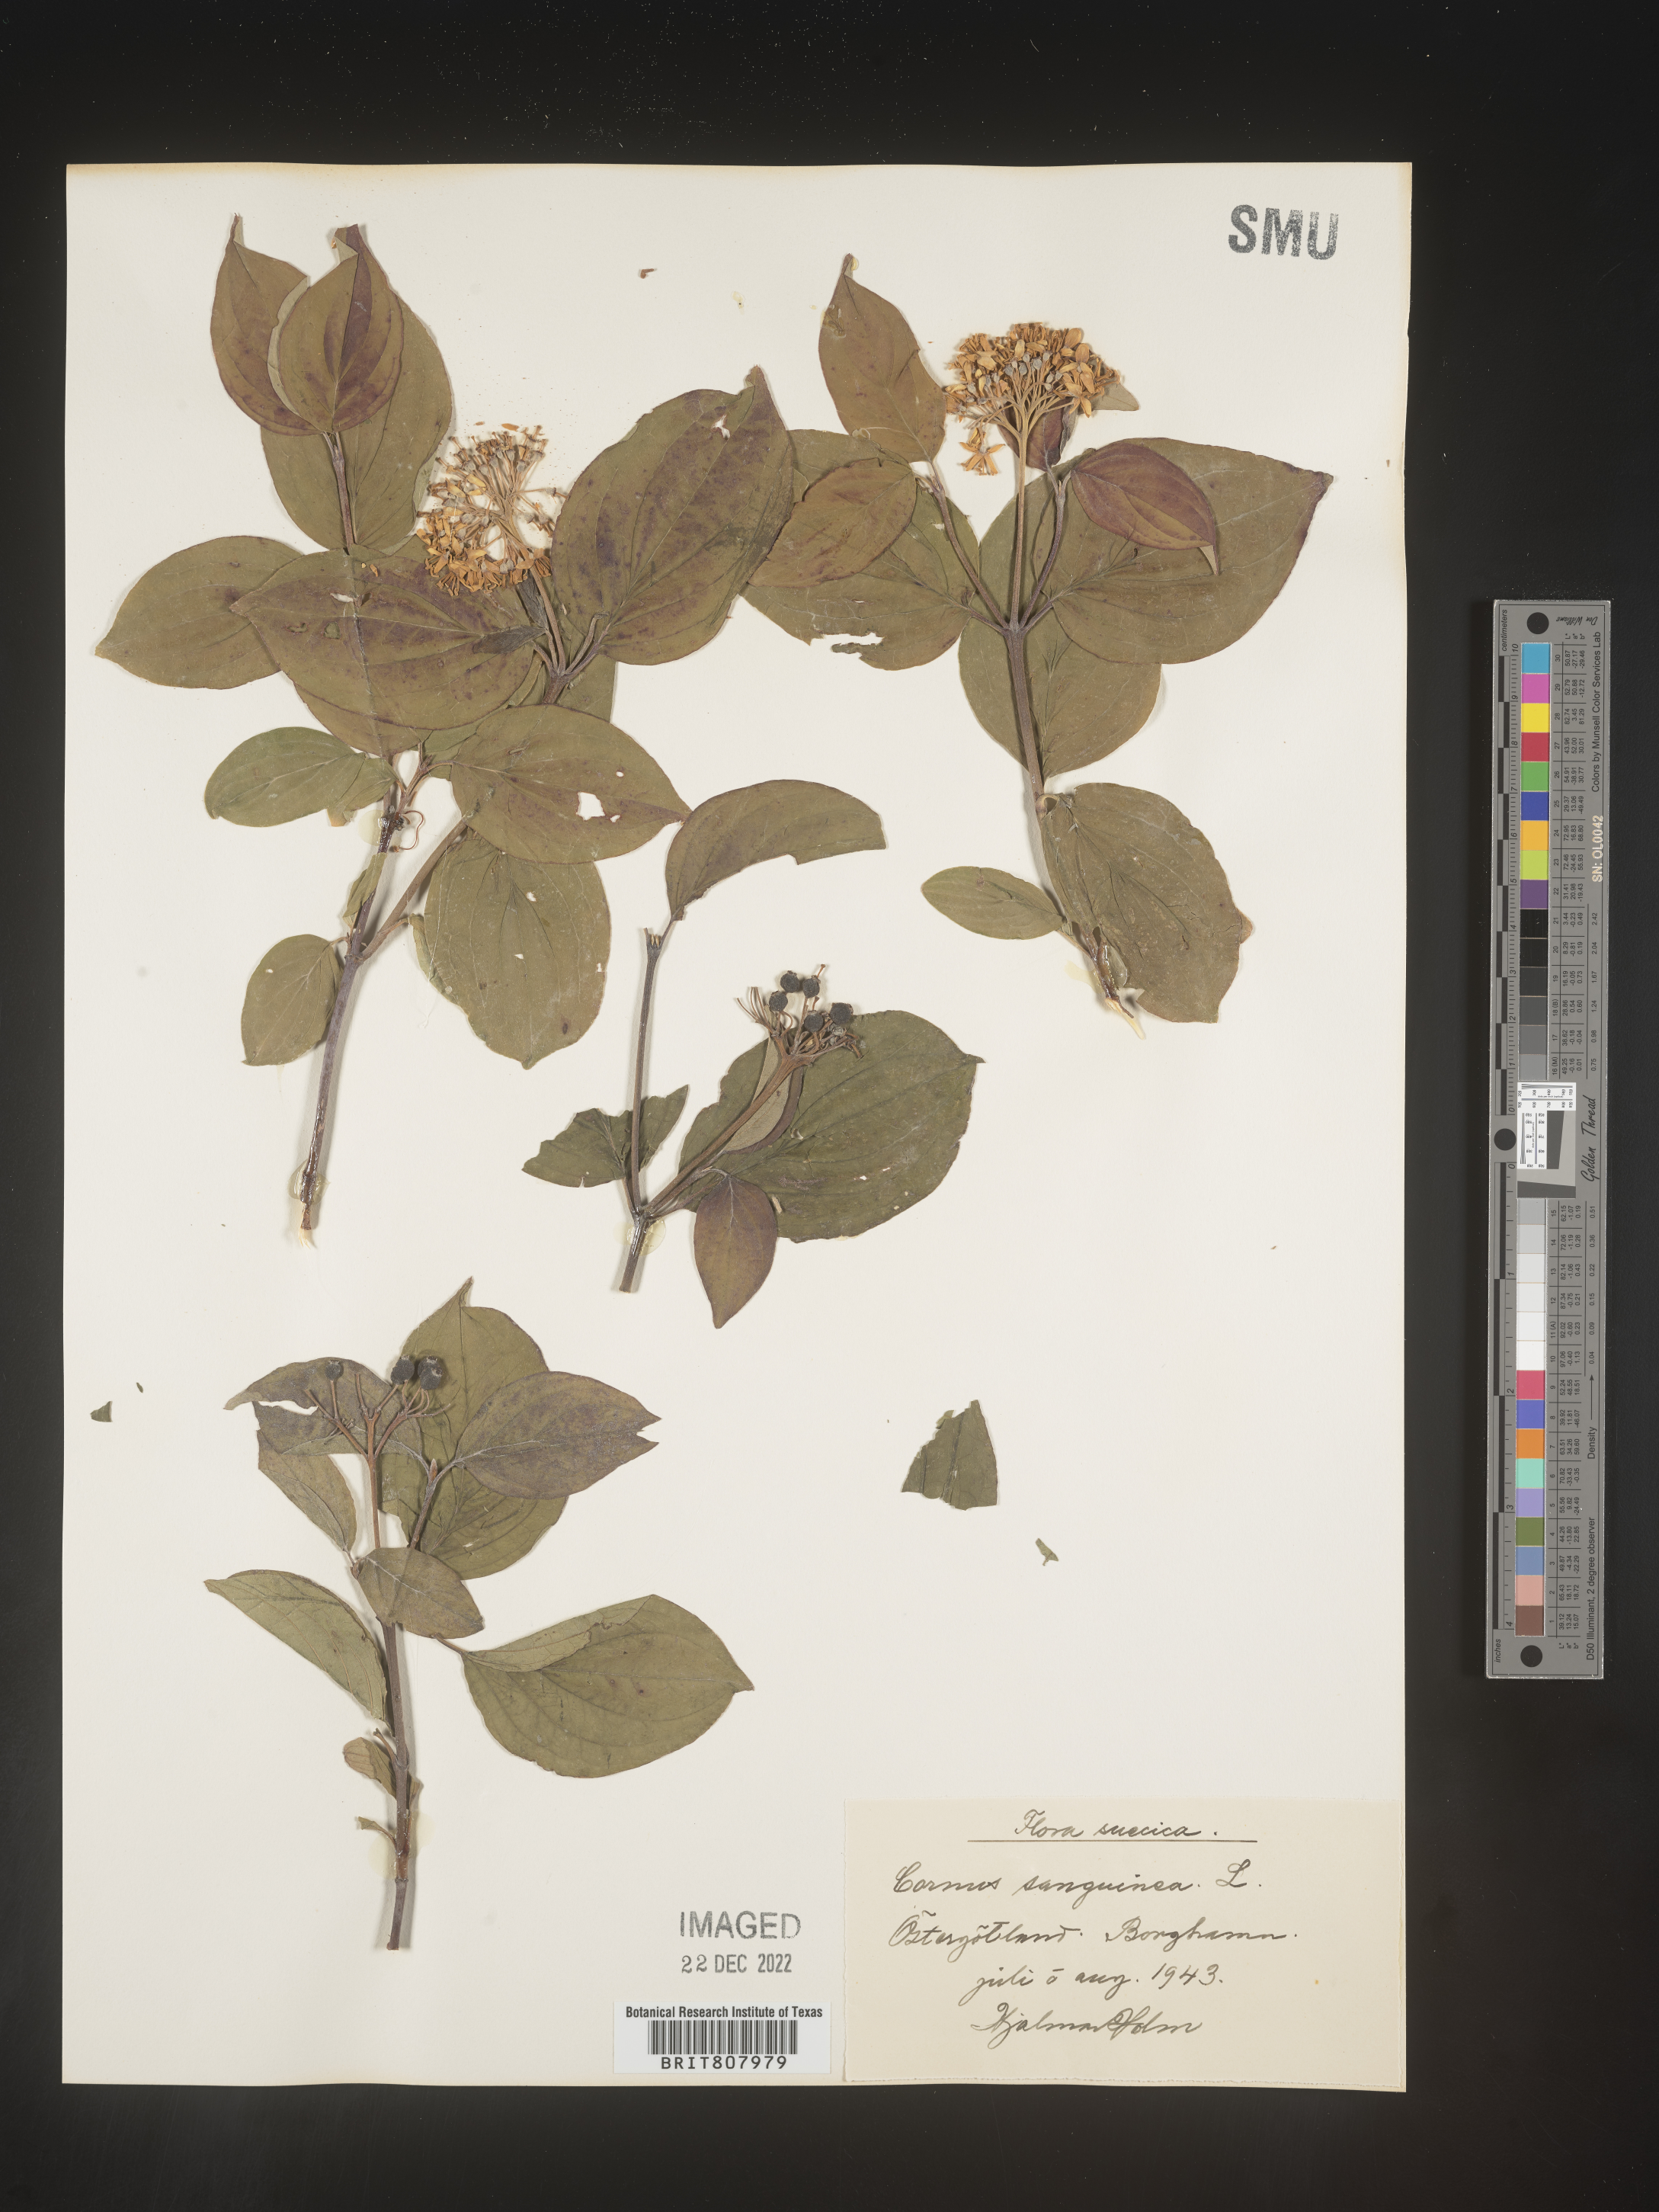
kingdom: Plantae
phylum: Tracheophyta
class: Magnoliopsida
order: Cornales
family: Cornaceae
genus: Cornus
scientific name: Cornus
